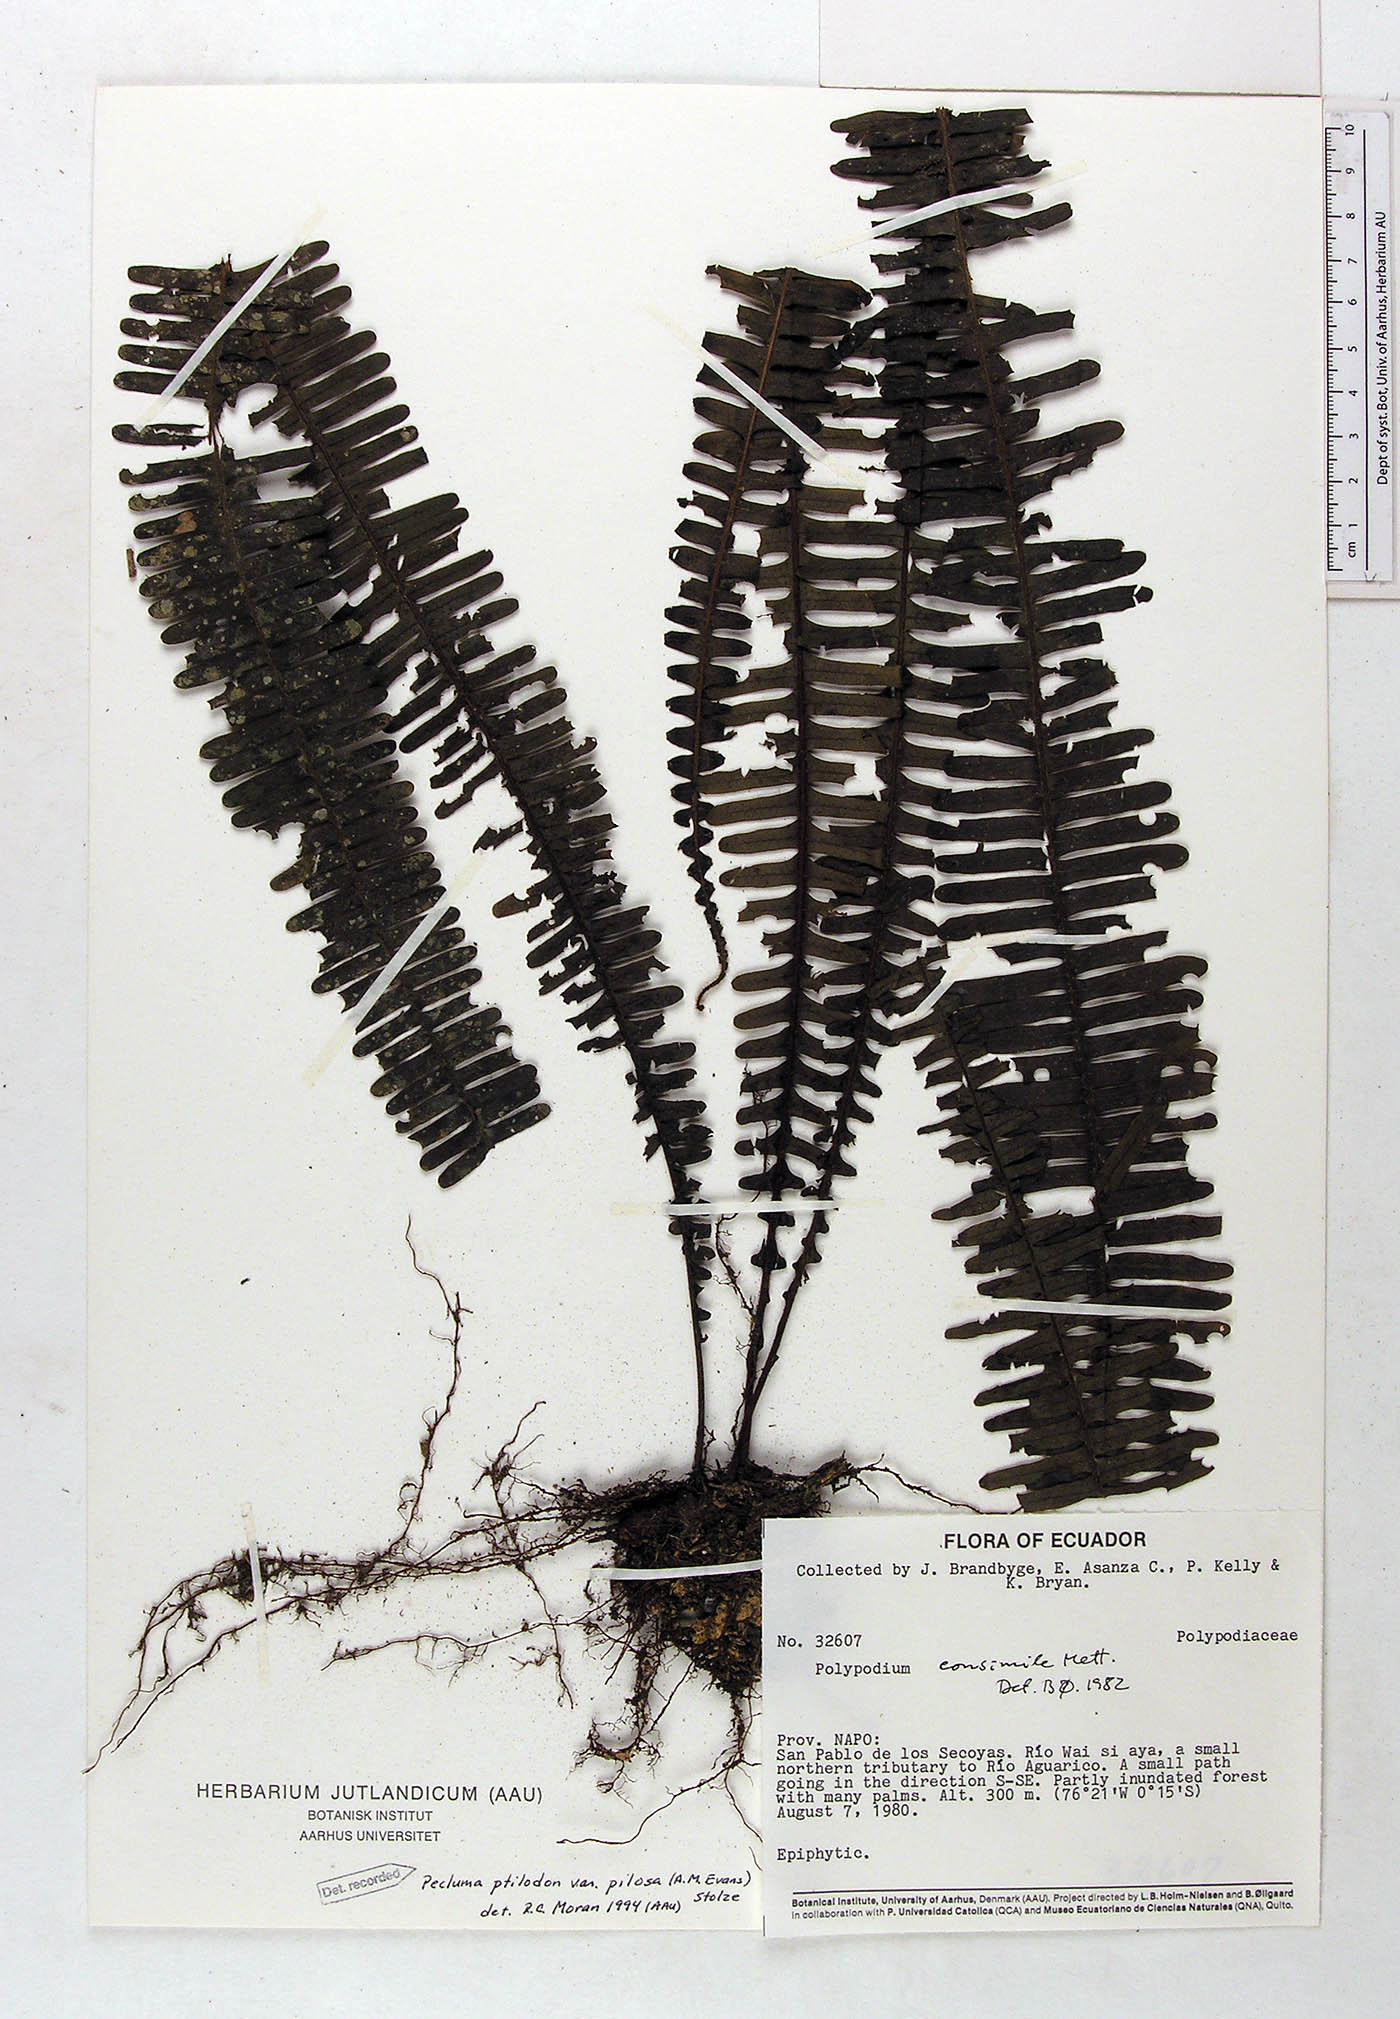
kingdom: Plantae
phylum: Tracheophyta
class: Polypodiopsida
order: Polypodiales
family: Polypodiaceae
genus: Pecluma
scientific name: Pecluma ptilotos
